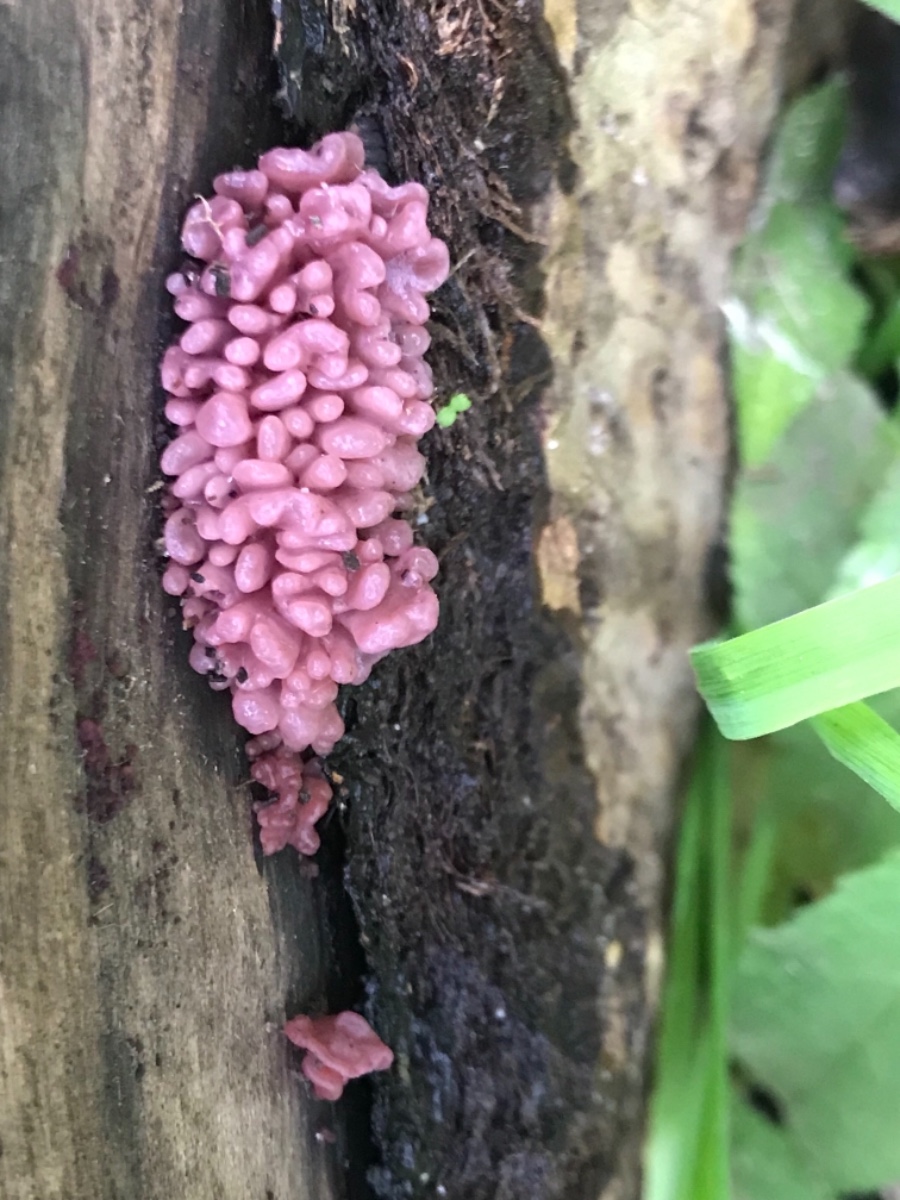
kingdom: Fungi
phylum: Ascomycota
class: Leotiomycetes
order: Helotiales
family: Gelatinodiscaceae
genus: Ascocoryne
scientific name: Ascocoryne sarcoides
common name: rødlilla sejskive
